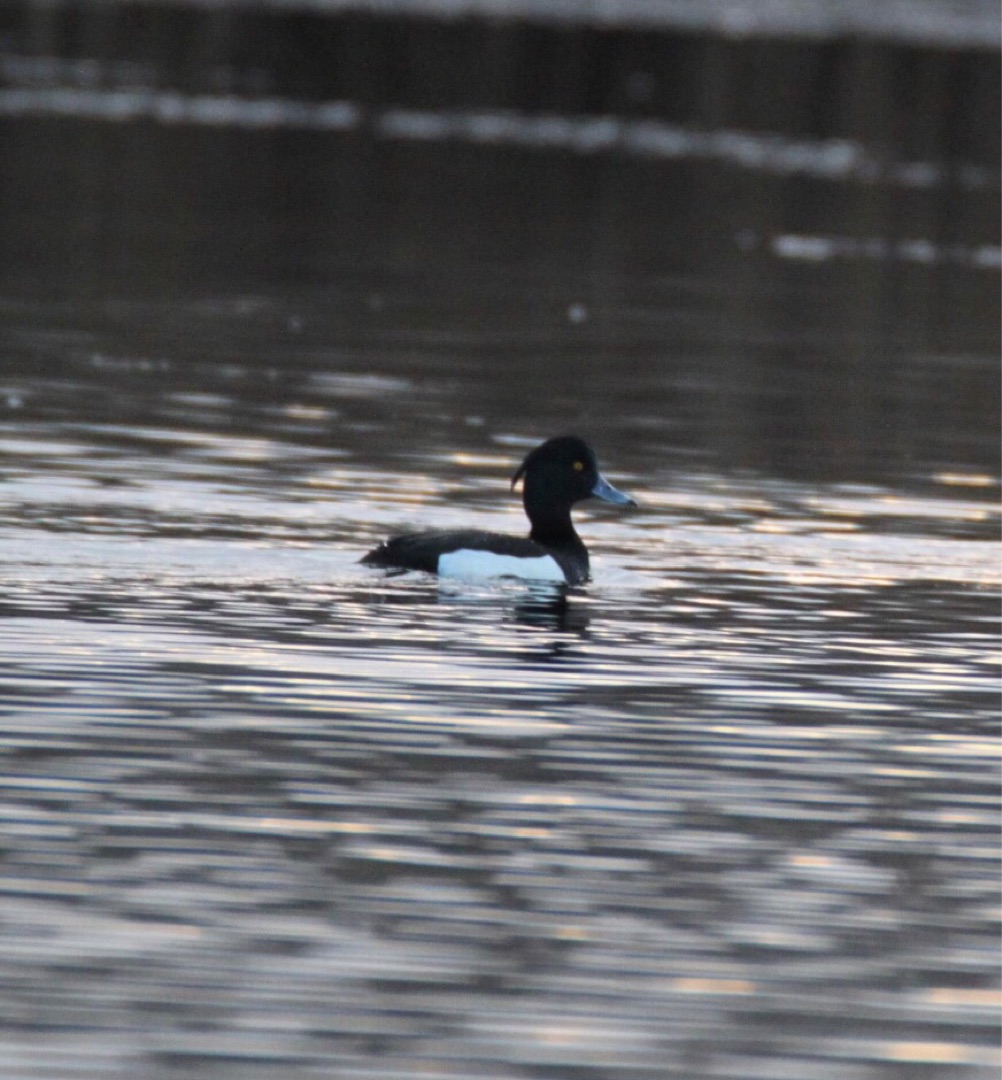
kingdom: Animalia
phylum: Chordata
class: Aves
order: Anseriformes
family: Anatidae
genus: Aythya
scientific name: Aythya fuligula
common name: Troldand
